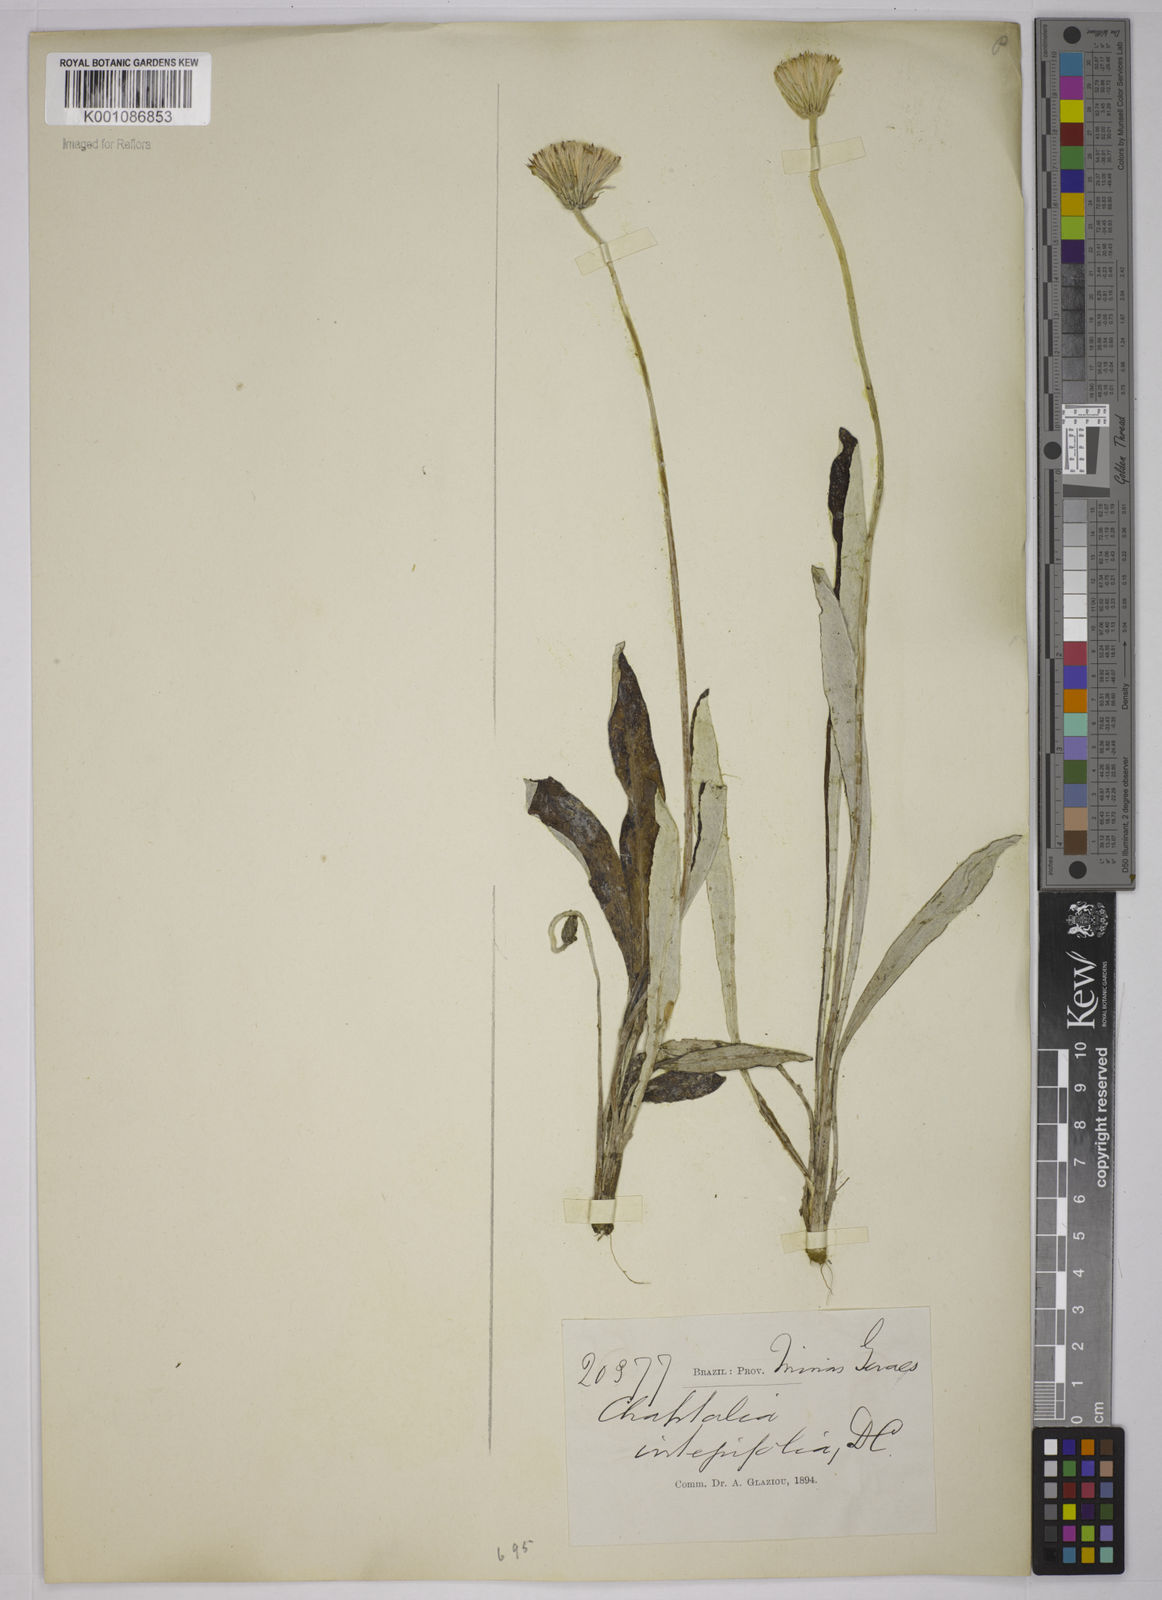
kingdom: Plantae
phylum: Tracheophyta
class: Magnoliopsida
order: Asterales
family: Asteraceae
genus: Chaptalia
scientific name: Chaptalia integerrima
